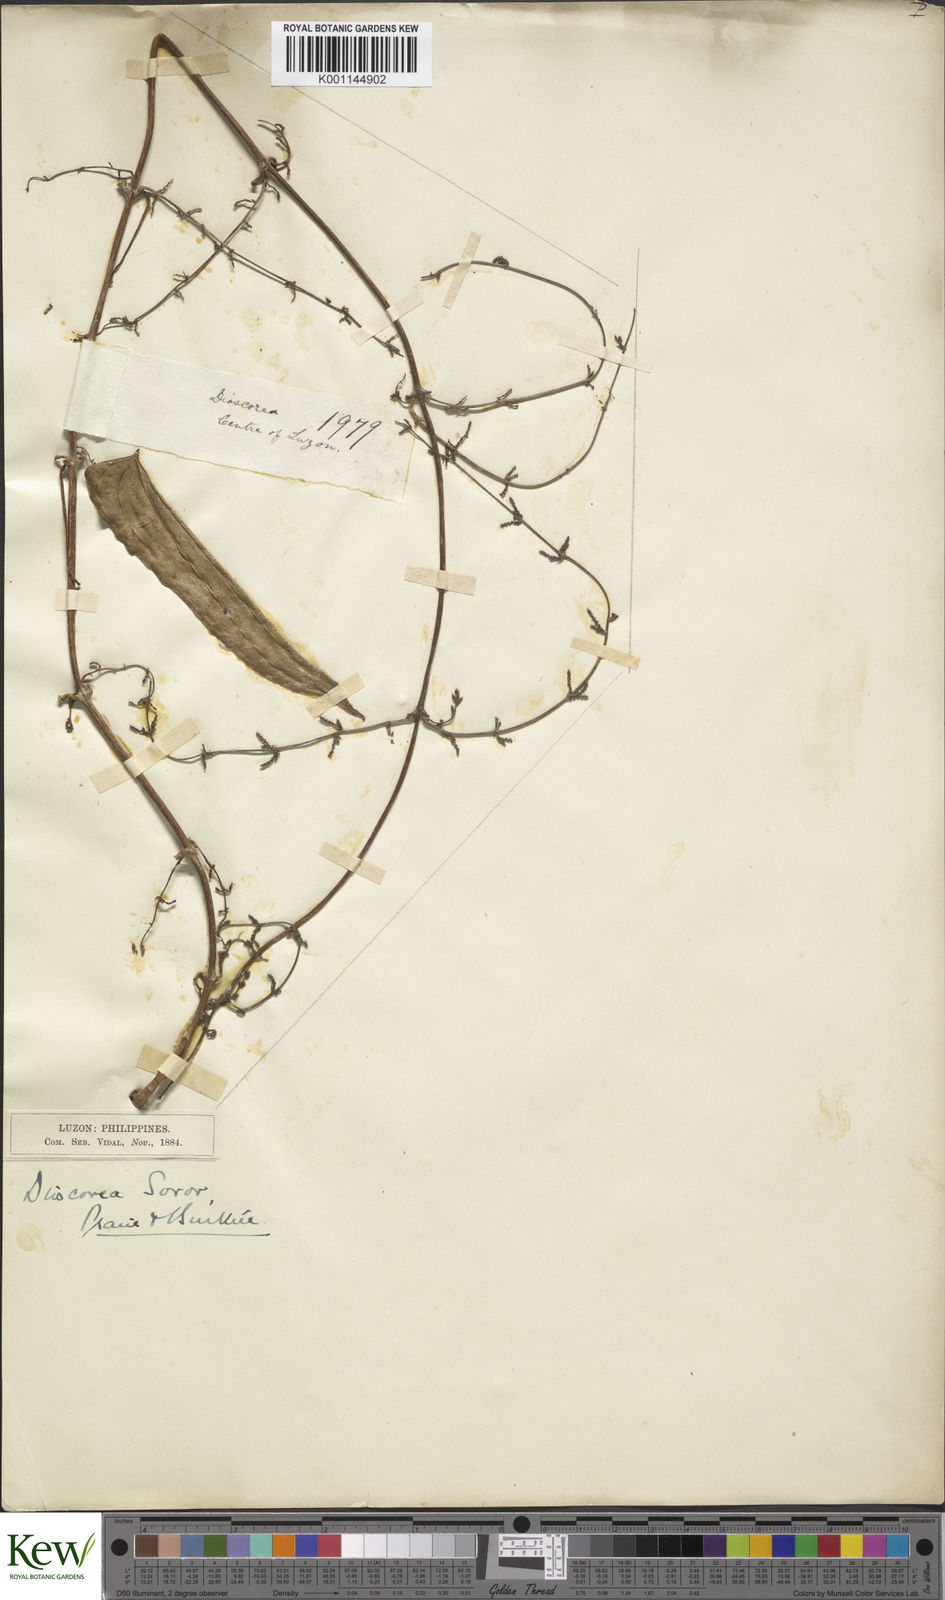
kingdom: Plantae
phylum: Tracheophyta
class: Liliopsida
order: Dioscoreales
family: Dioscoreaceae
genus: Dioscorea
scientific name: Dioscorea divaricata
